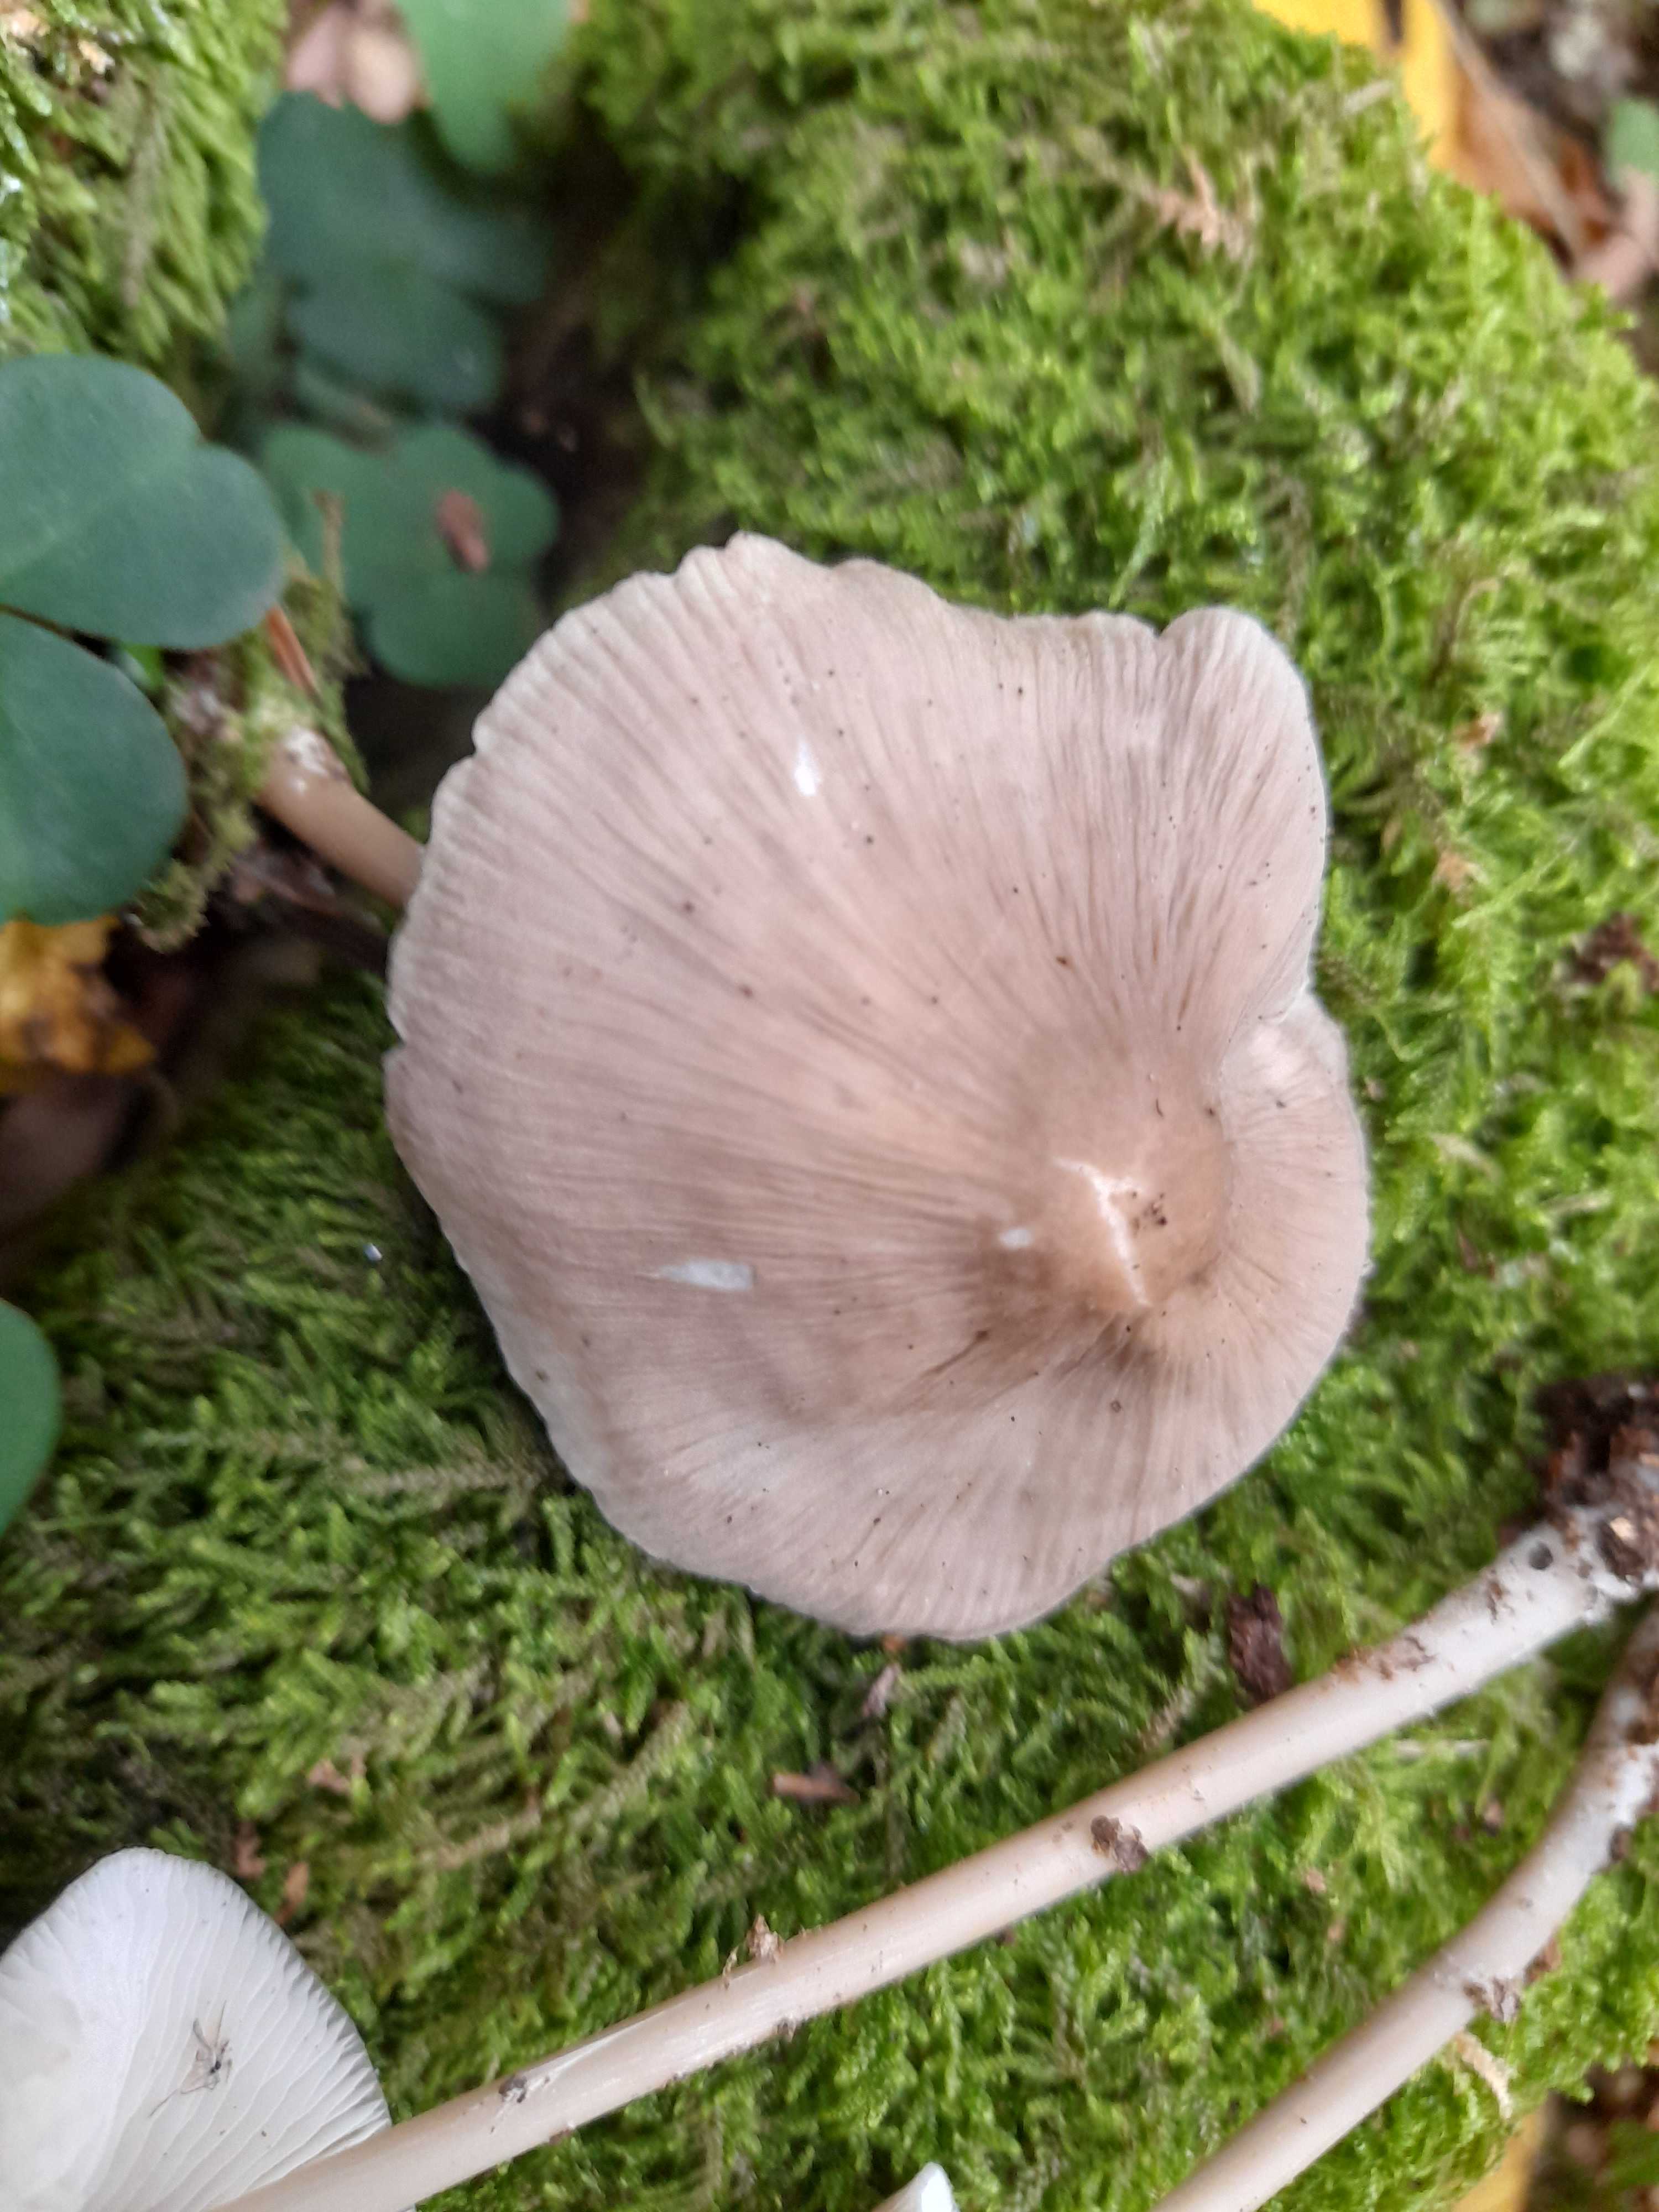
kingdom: Fungi
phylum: Basidiomycota
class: Agaricomycetes
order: Agaricales
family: Mycenaceae
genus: Mycena
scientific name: Mycena galericulata
